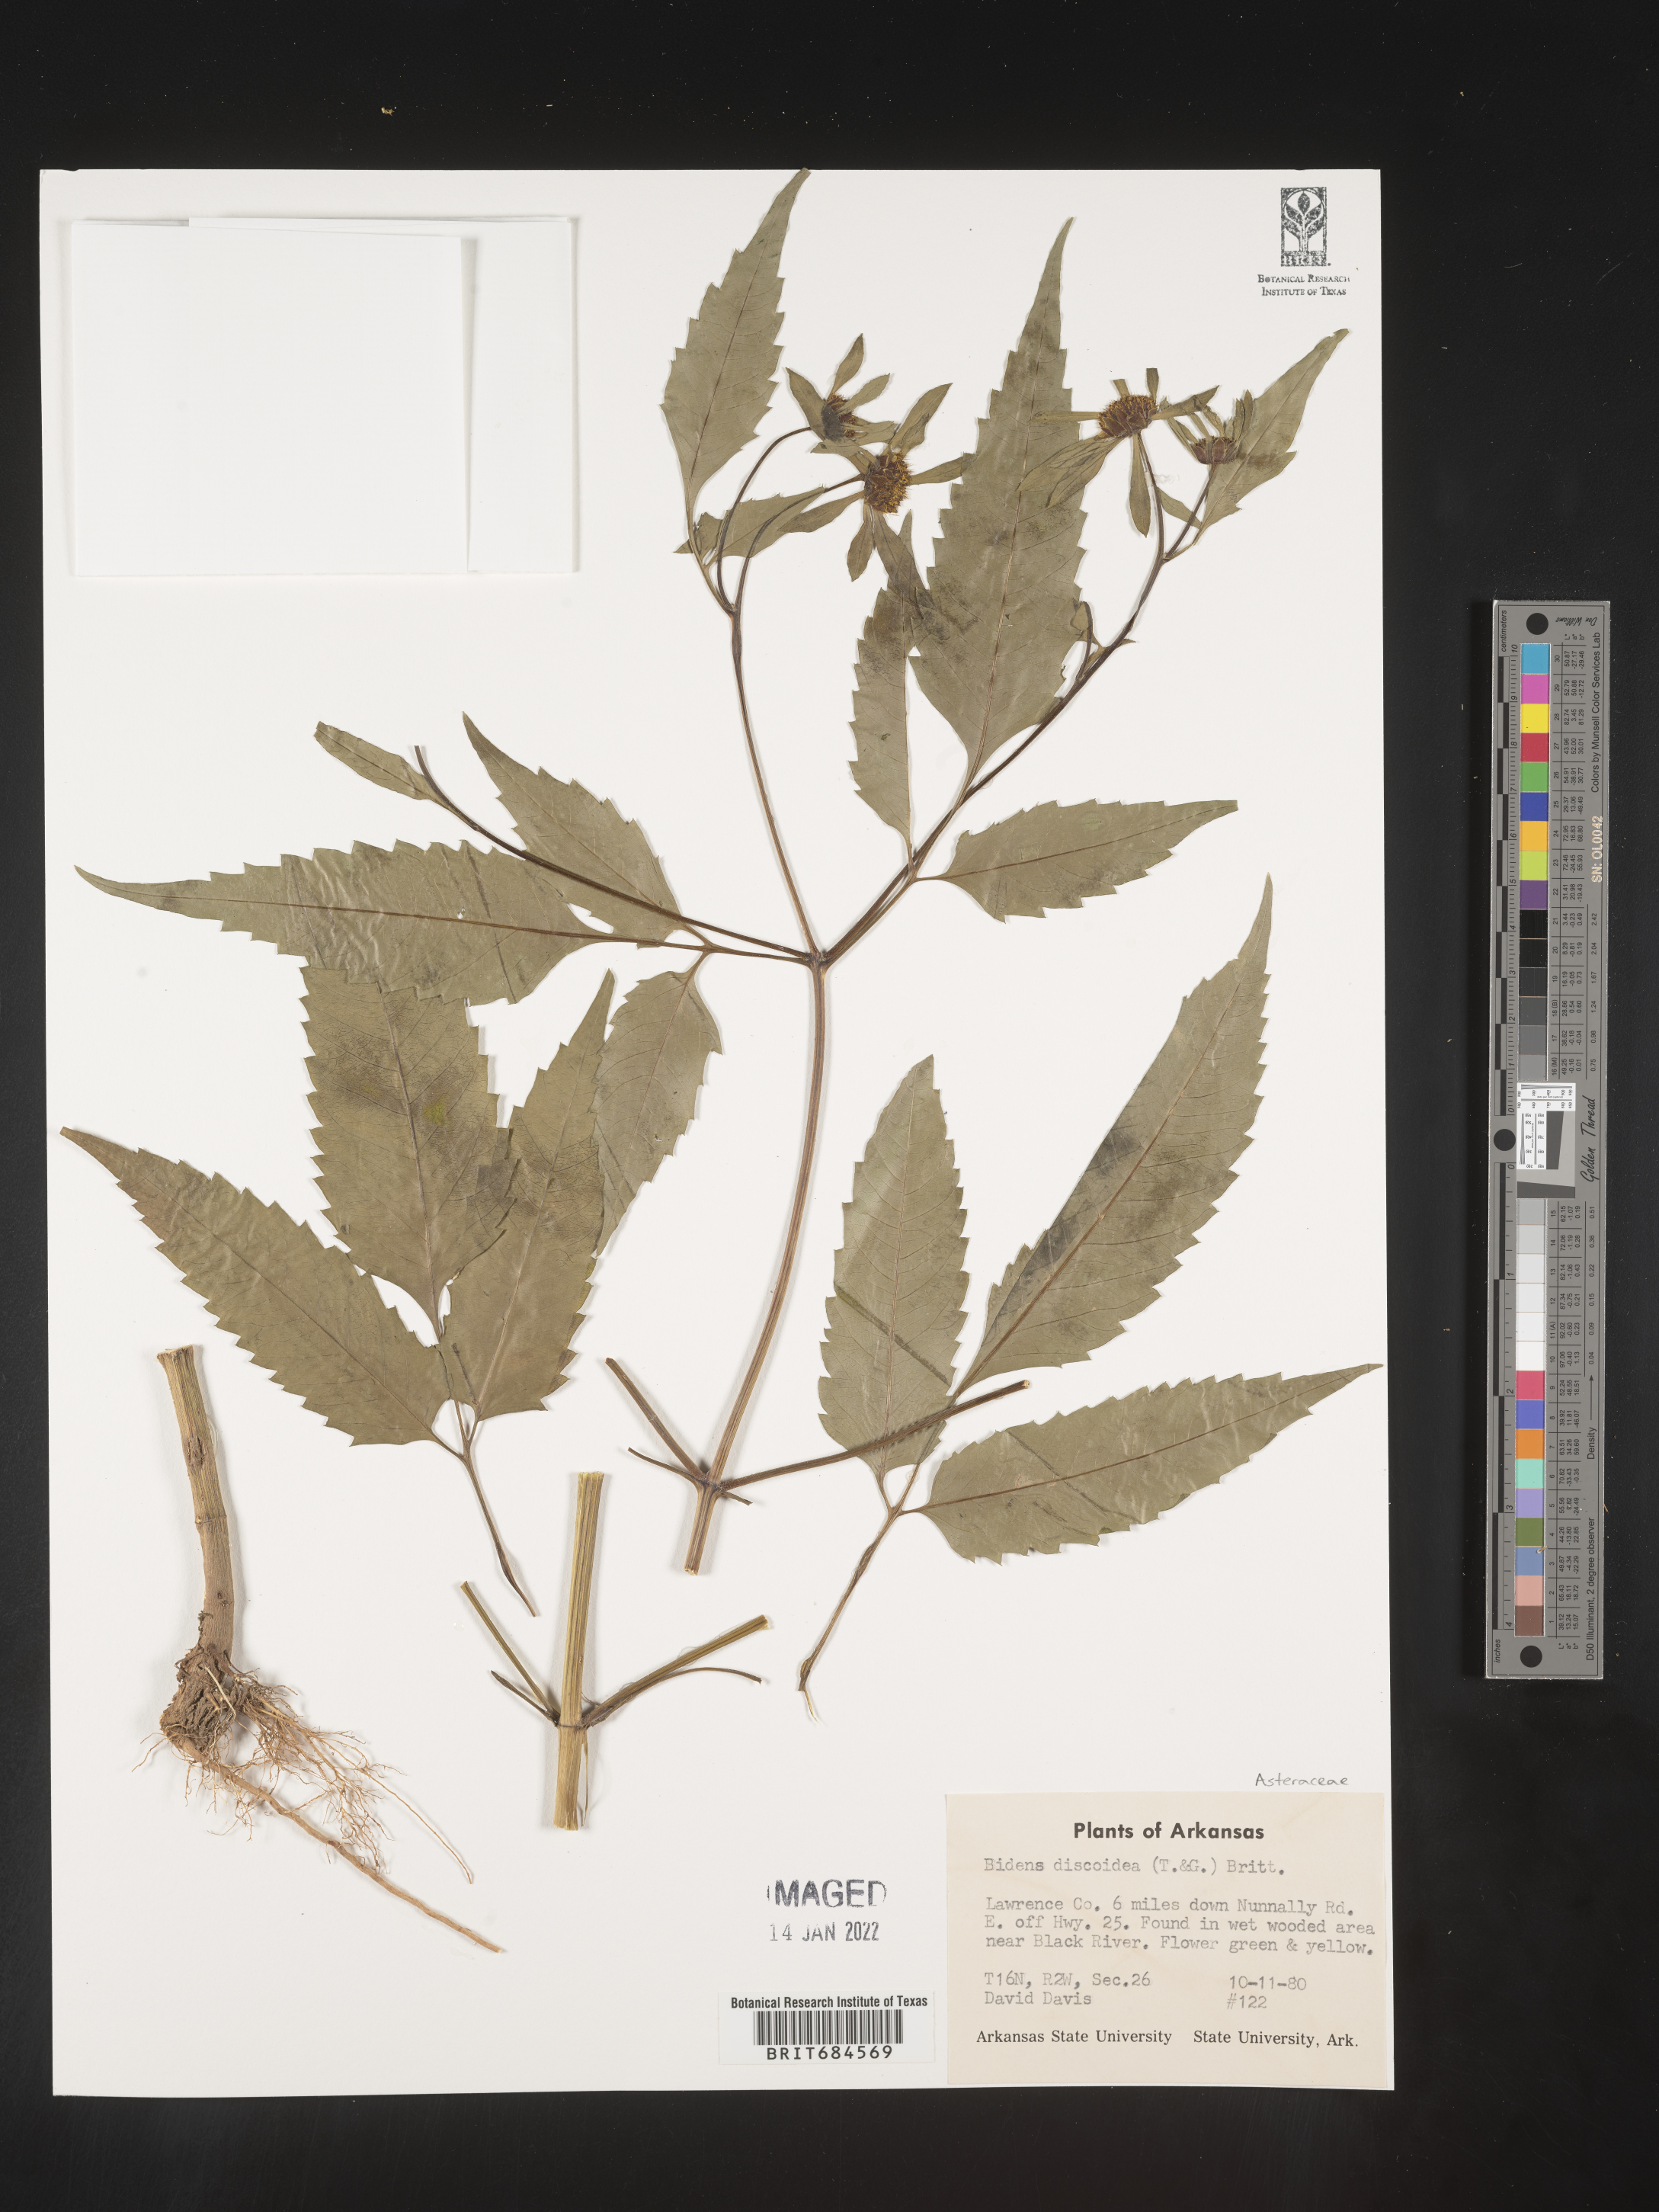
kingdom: Plantae
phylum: Tracheophyta
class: Magnoliopsida
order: Asterales
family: Asteraceae
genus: Bidens
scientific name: Bidens discoidea
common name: Discoide beggarticks
